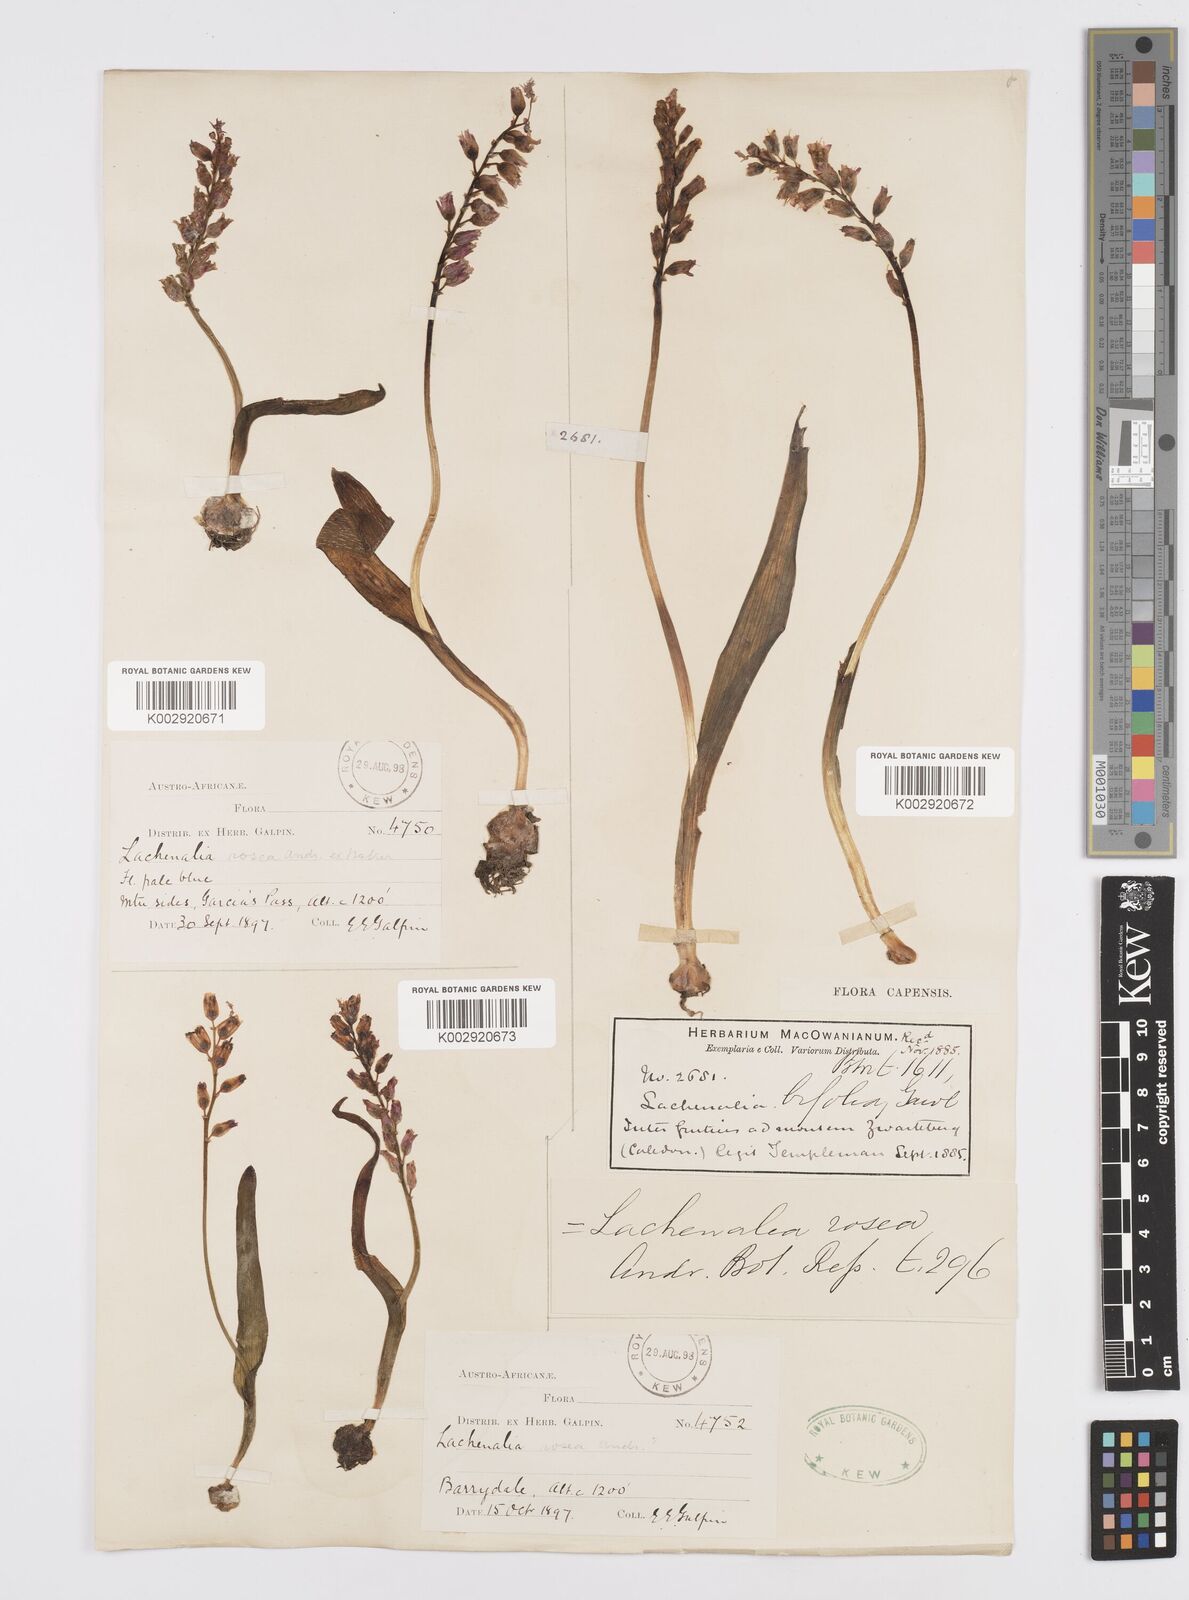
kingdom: Plantae
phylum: Tracheophyta
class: Liliopsida
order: Asparagales
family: Asparagaceae
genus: Lachenalia
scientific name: Lachenalia rosea
